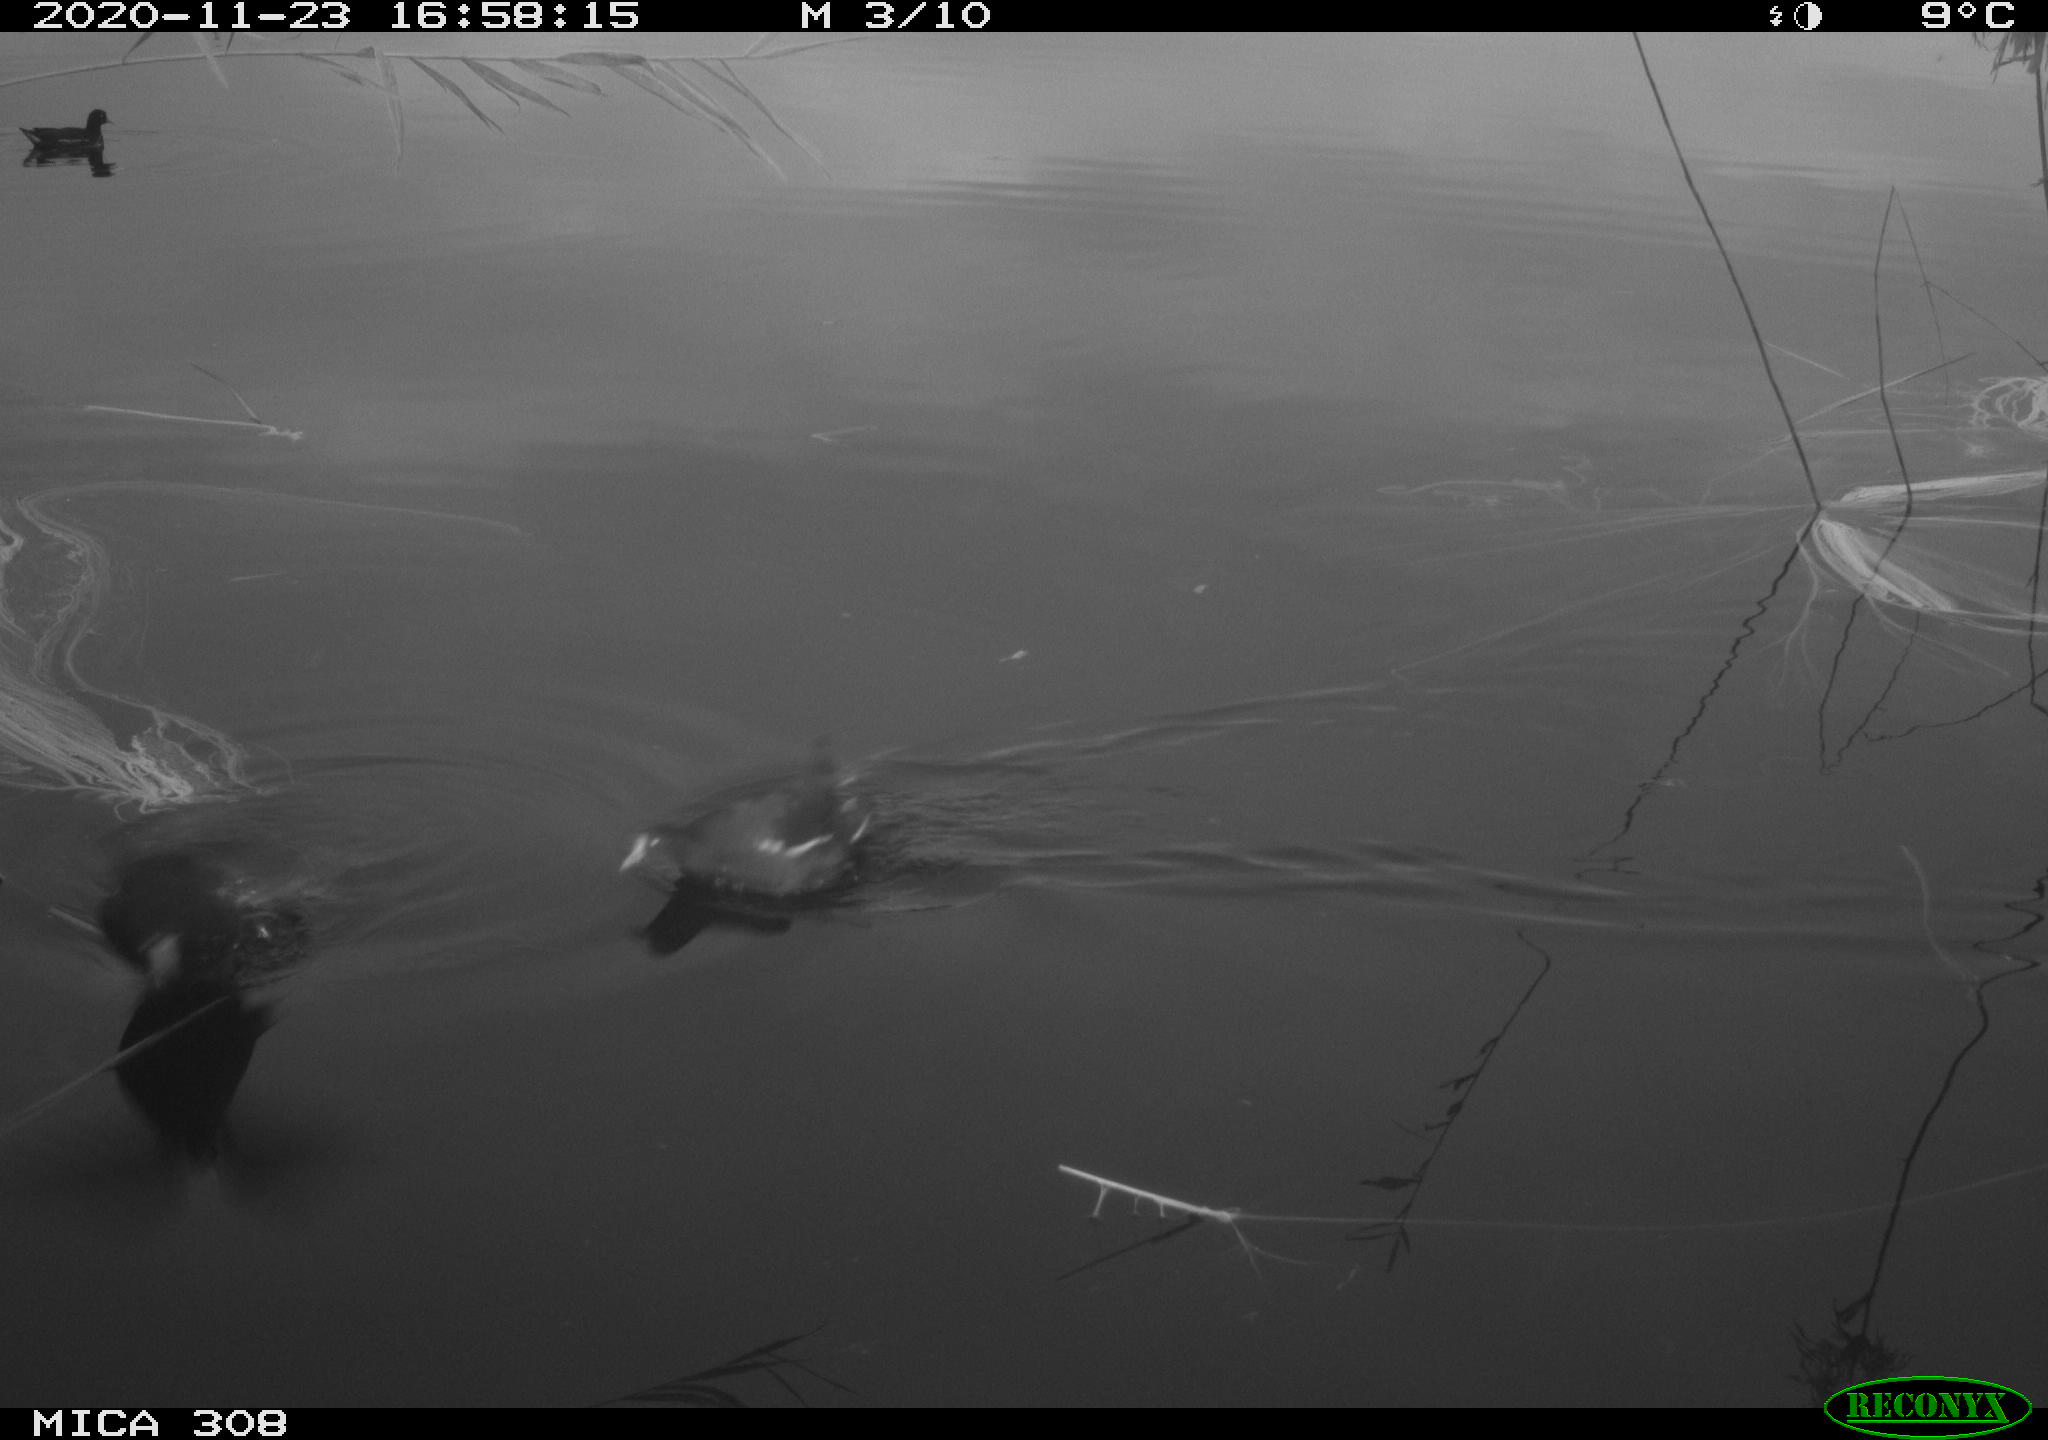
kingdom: Animalia
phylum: Chordata
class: Aves
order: Gruiformes
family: Rallidae
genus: Gallinula
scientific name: Gallinula chloropus
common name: Common moorhen
